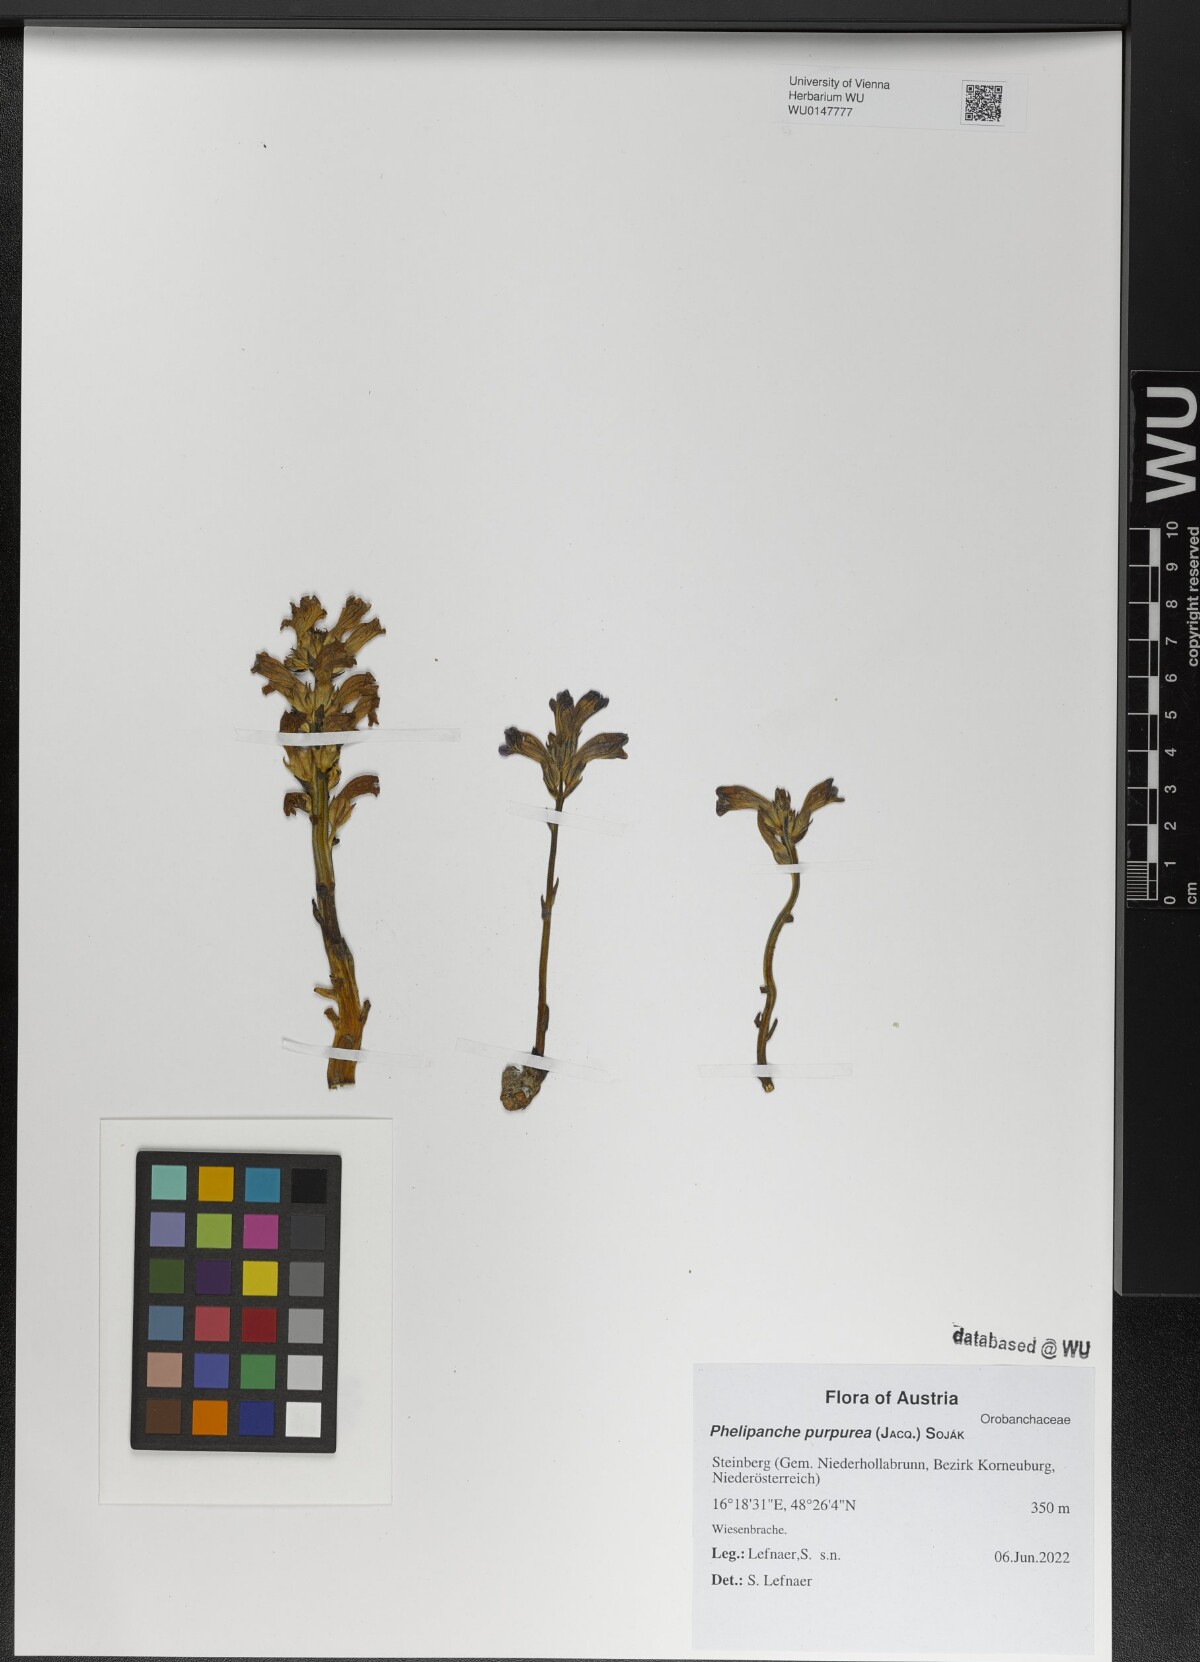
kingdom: Plantae
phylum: Tracheophyta
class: Magnoliopsida
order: Lamiales
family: Orobanchaceae
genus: Phelipanche
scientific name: Phelipanche purpurea
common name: Purple broomrape
